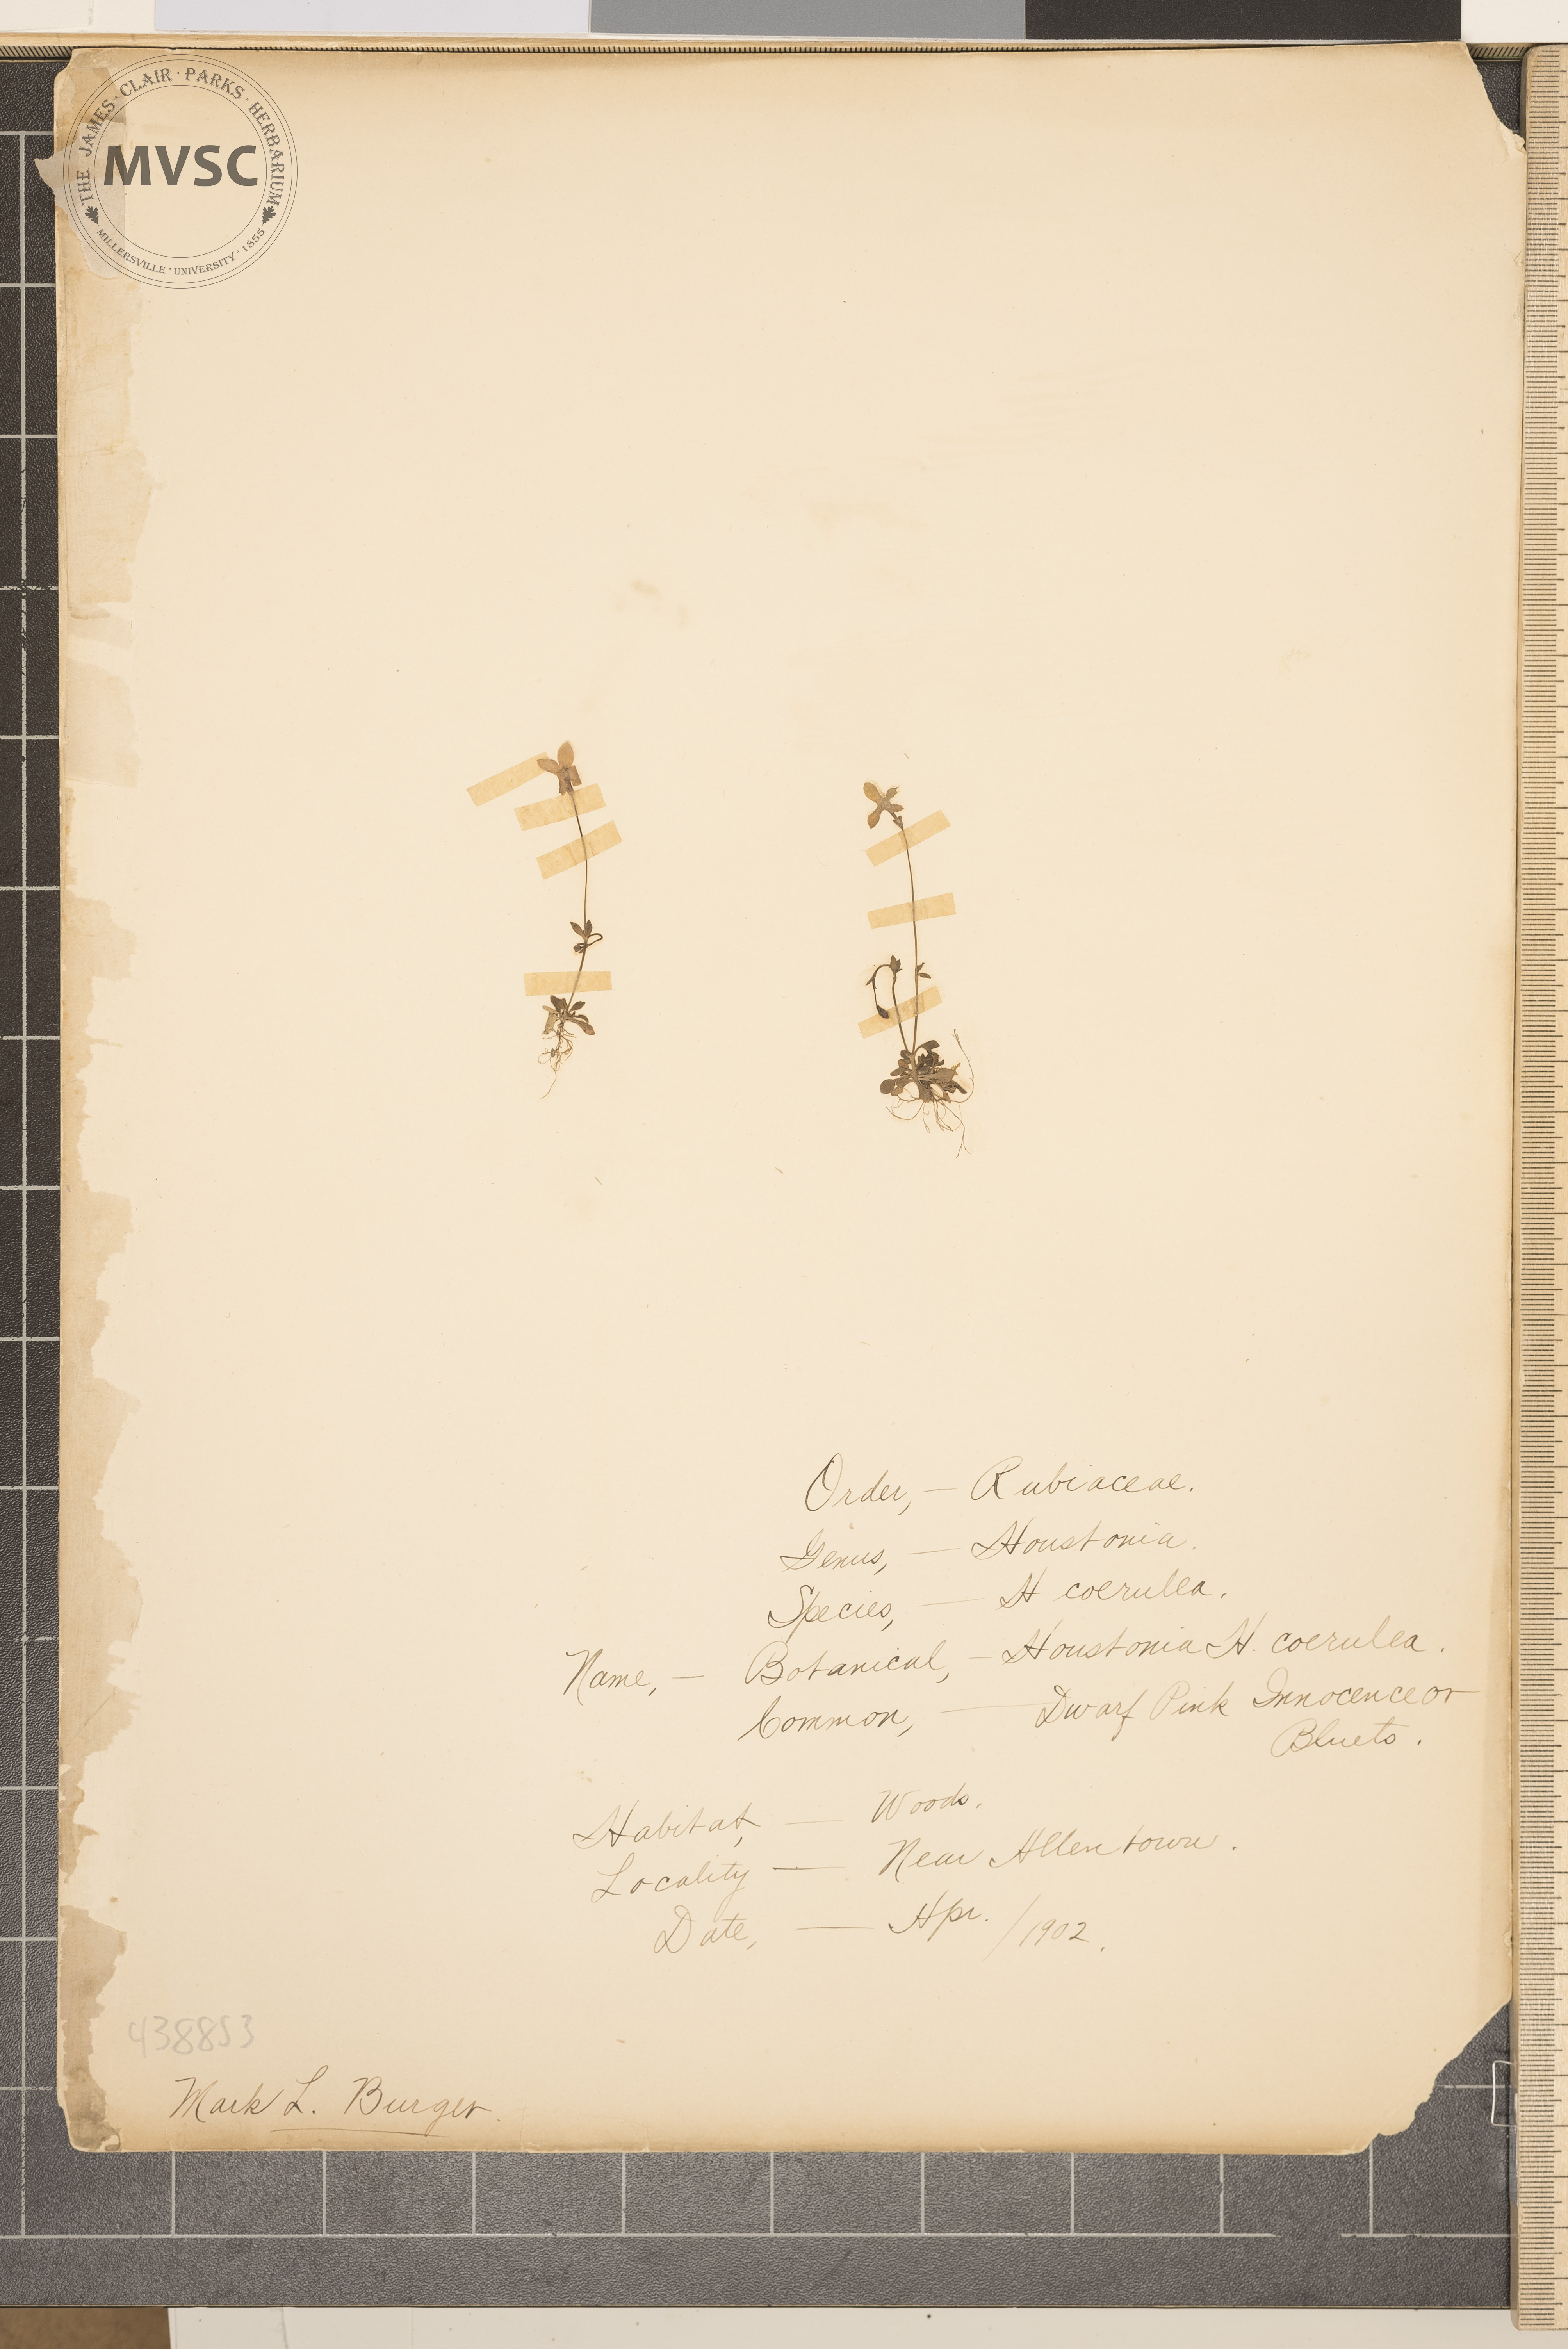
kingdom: Plantae
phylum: Tracheophyta
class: Magnoliopsida
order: Gentianales
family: Rubiaceae
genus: Houstonia
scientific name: Houstonia caerulea
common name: Bluets
